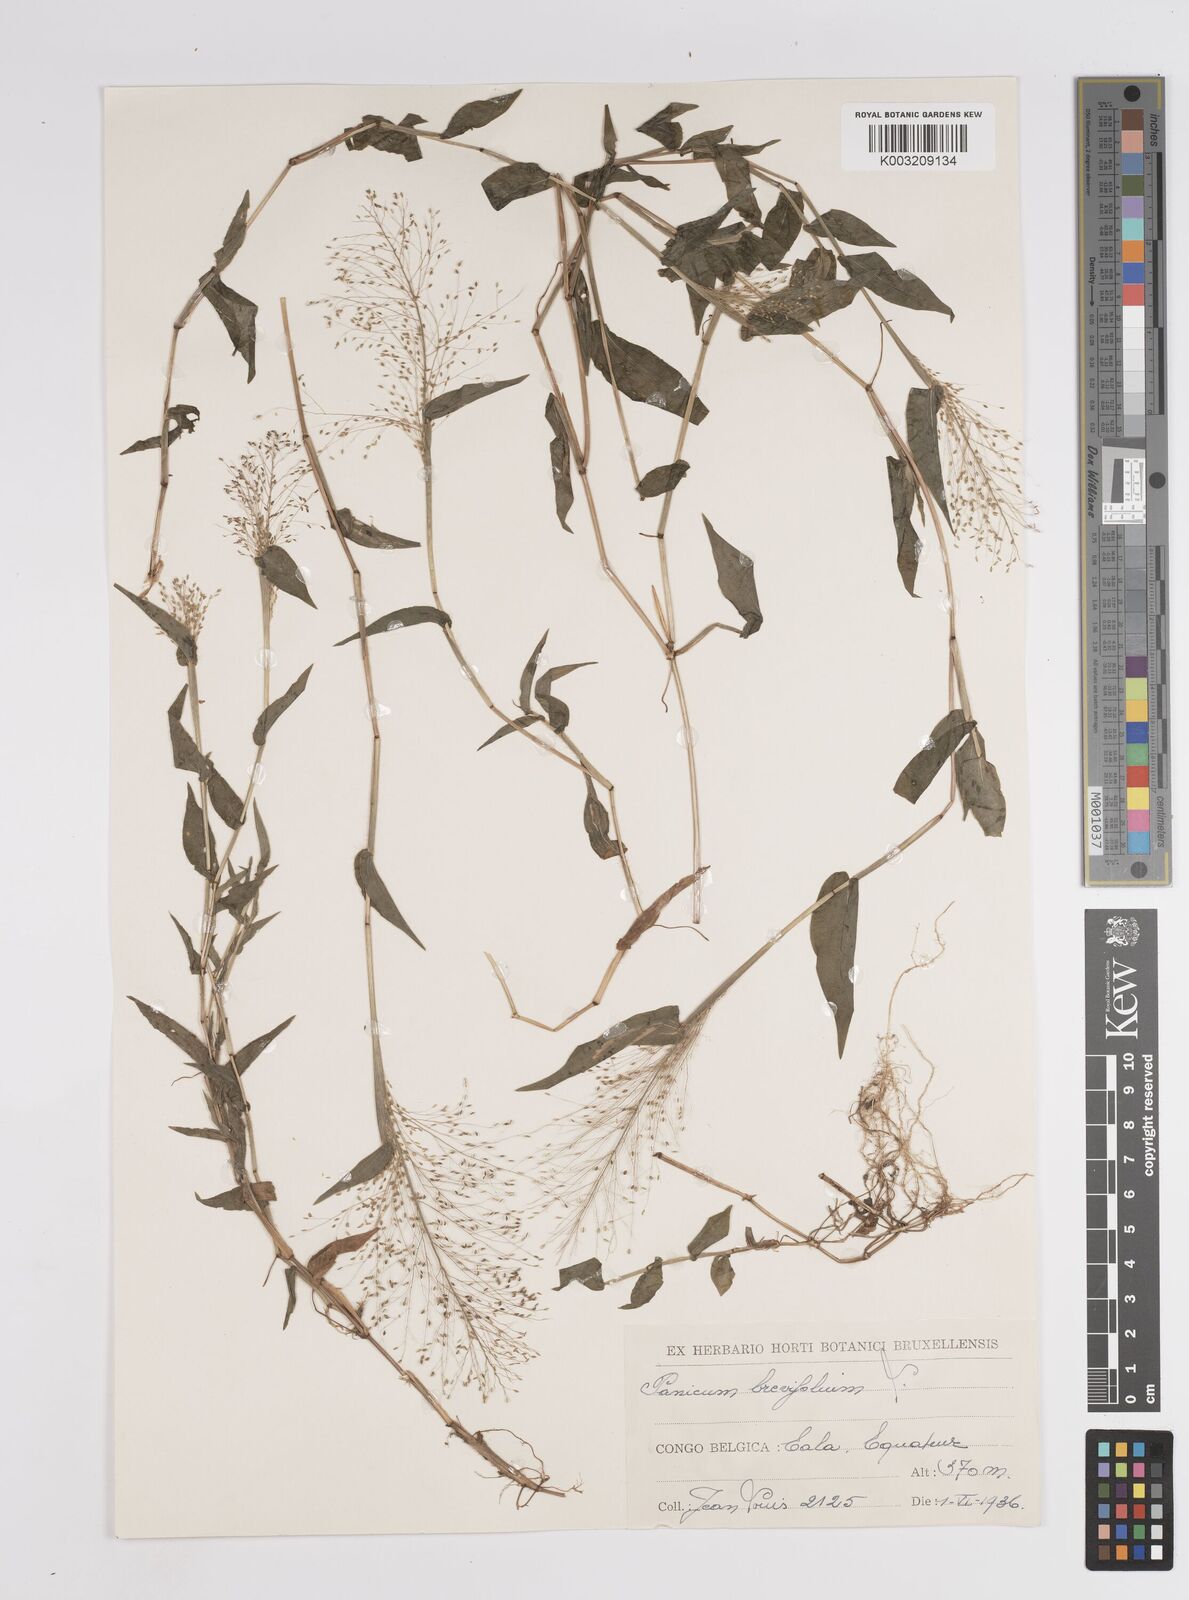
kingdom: Plantae
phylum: Tracheophyta
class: Liliopsida
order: Poales
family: Poaceae
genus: Panicum
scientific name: Panicum brevifolium
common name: Shortleaf panic grass
